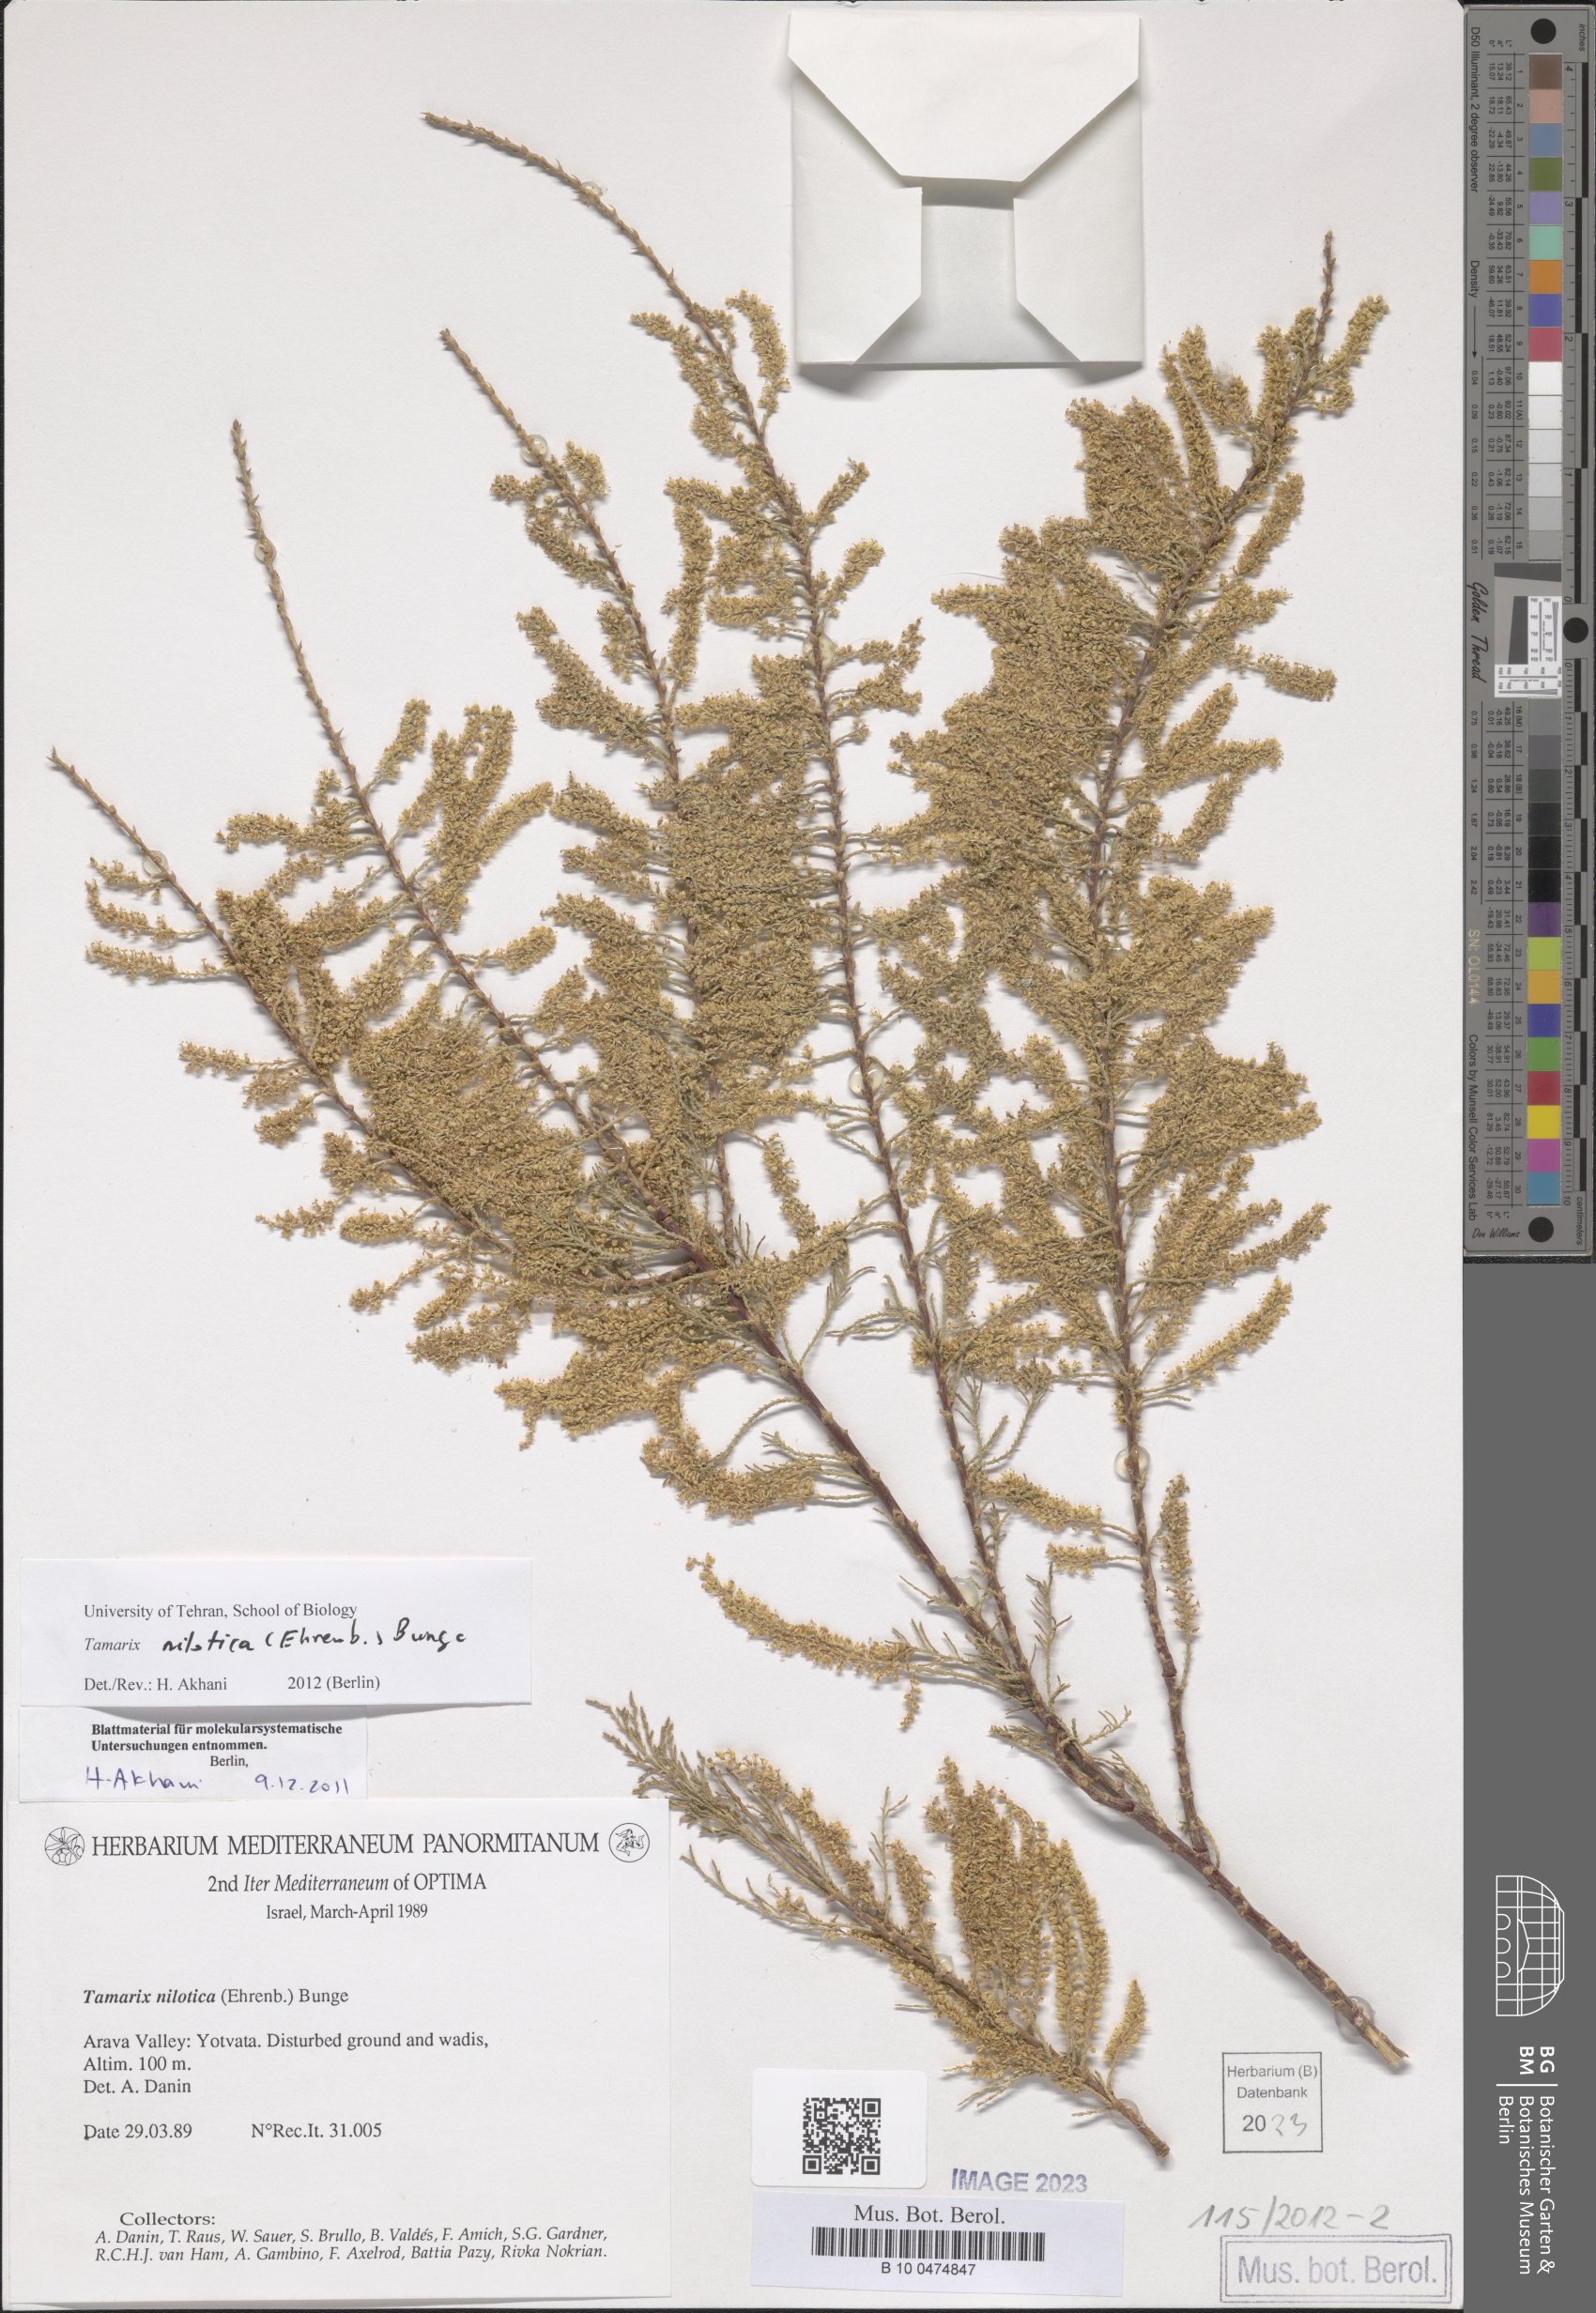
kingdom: Plantae
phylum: Tracheophyta
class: Magnoliopsida
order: Caryophyllales
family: Tamaricaceae
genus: Tamarix
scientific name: Tamarix nilotica
